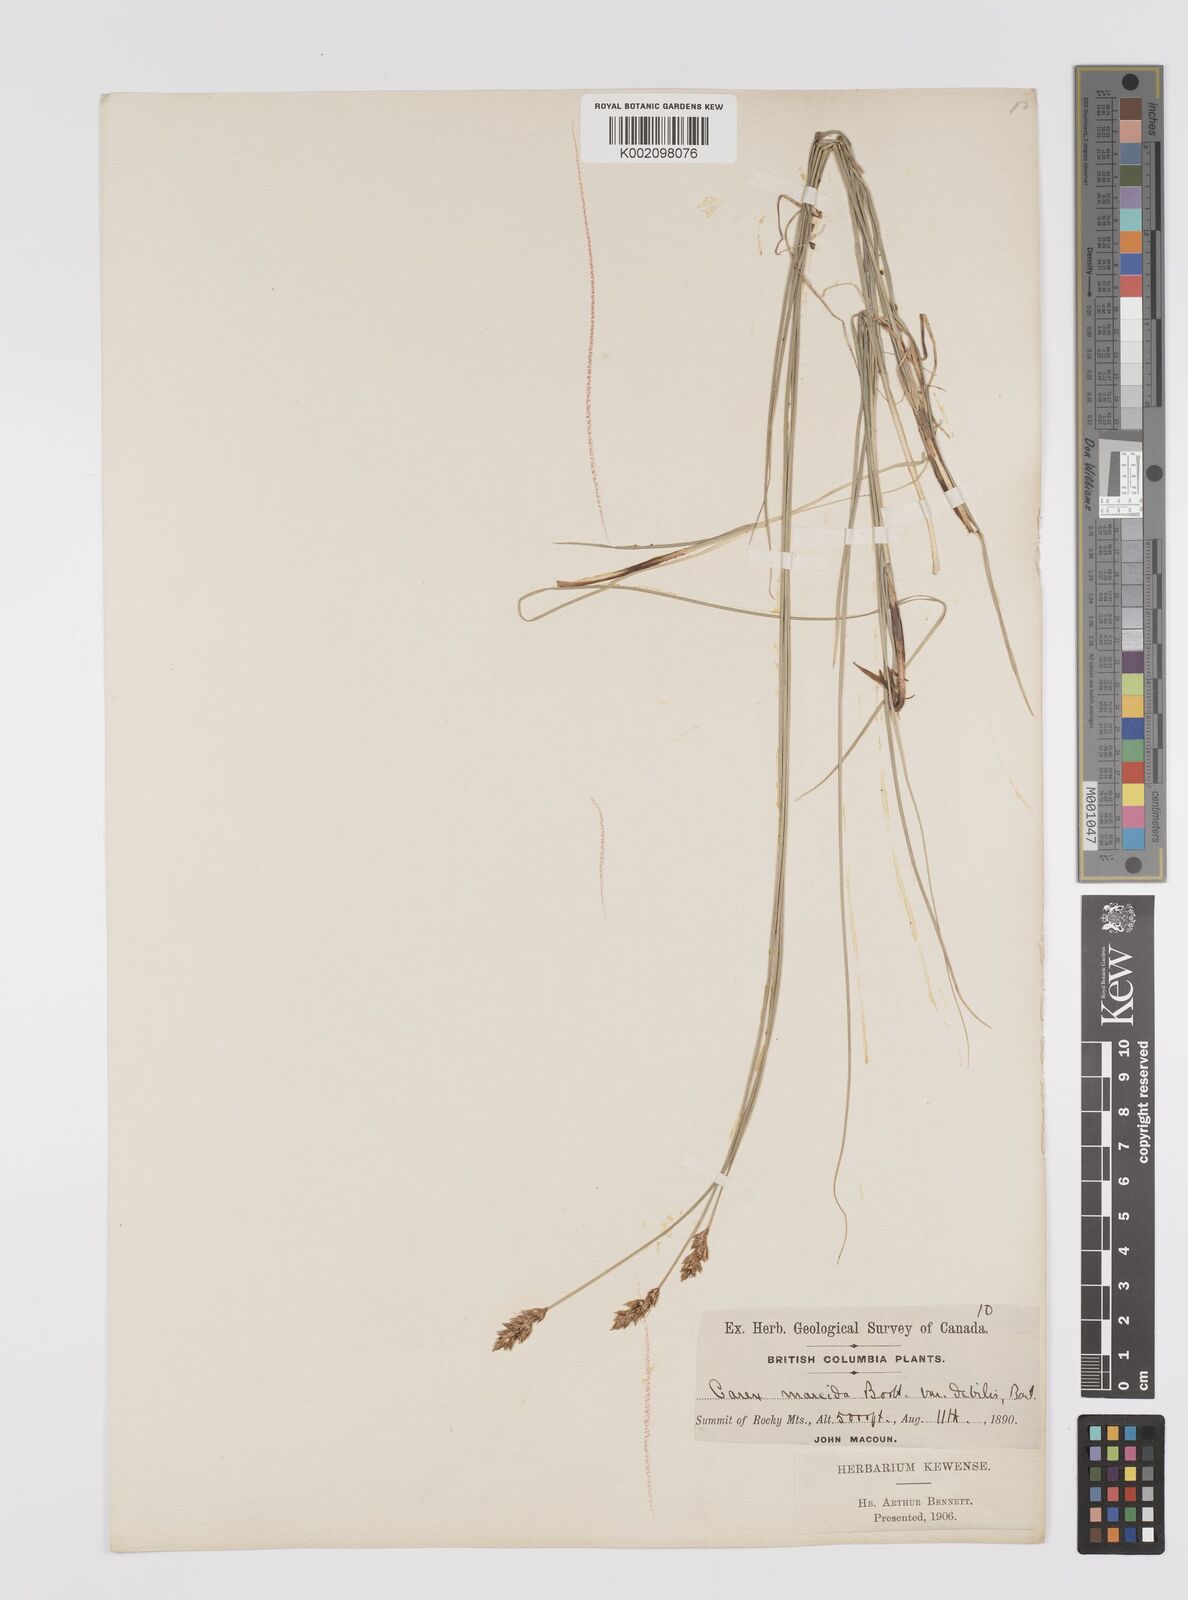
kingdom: Plantae
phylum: Tracheophyta
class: Liliopsida
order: Poales
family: Cyperaceae
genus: Carex
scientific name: Carex praegracilis
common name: Black creeper sedge
